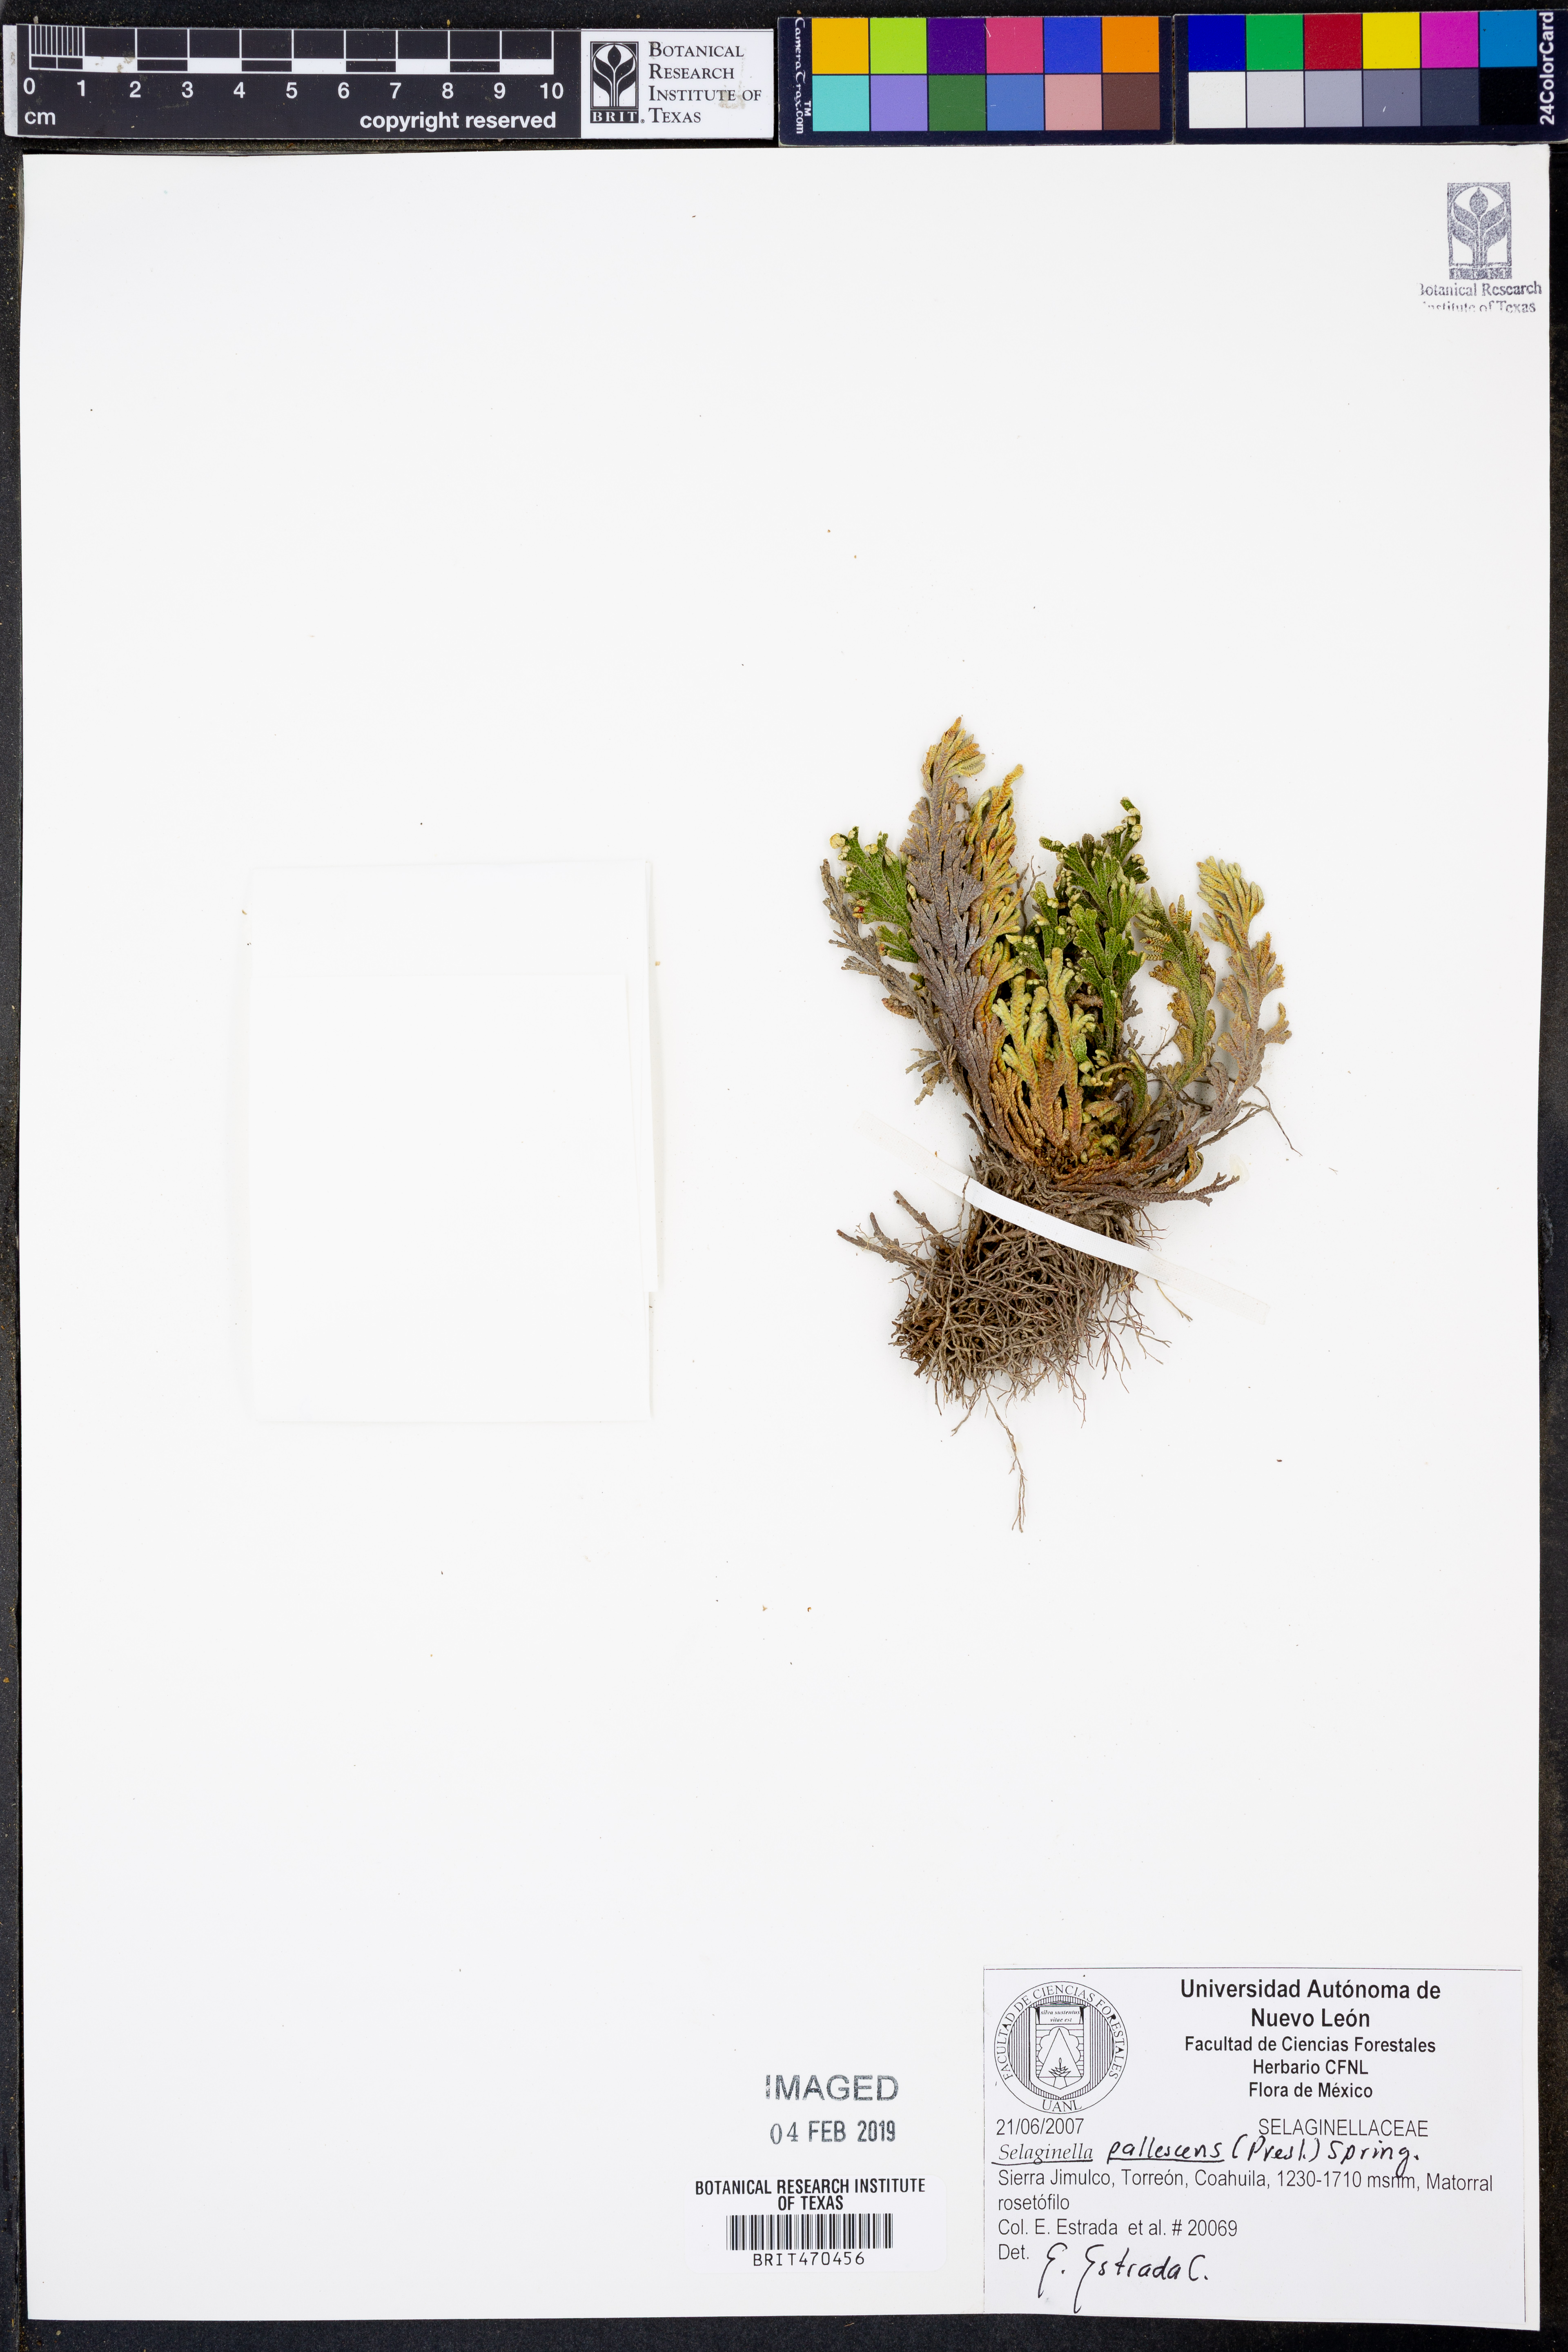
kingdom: Plantae
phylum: Tracheophyta
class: Lycopodiopsida
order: Selaginellales
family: Selaginellaceae
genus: Selaginella
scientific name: Selaginella pallescens
